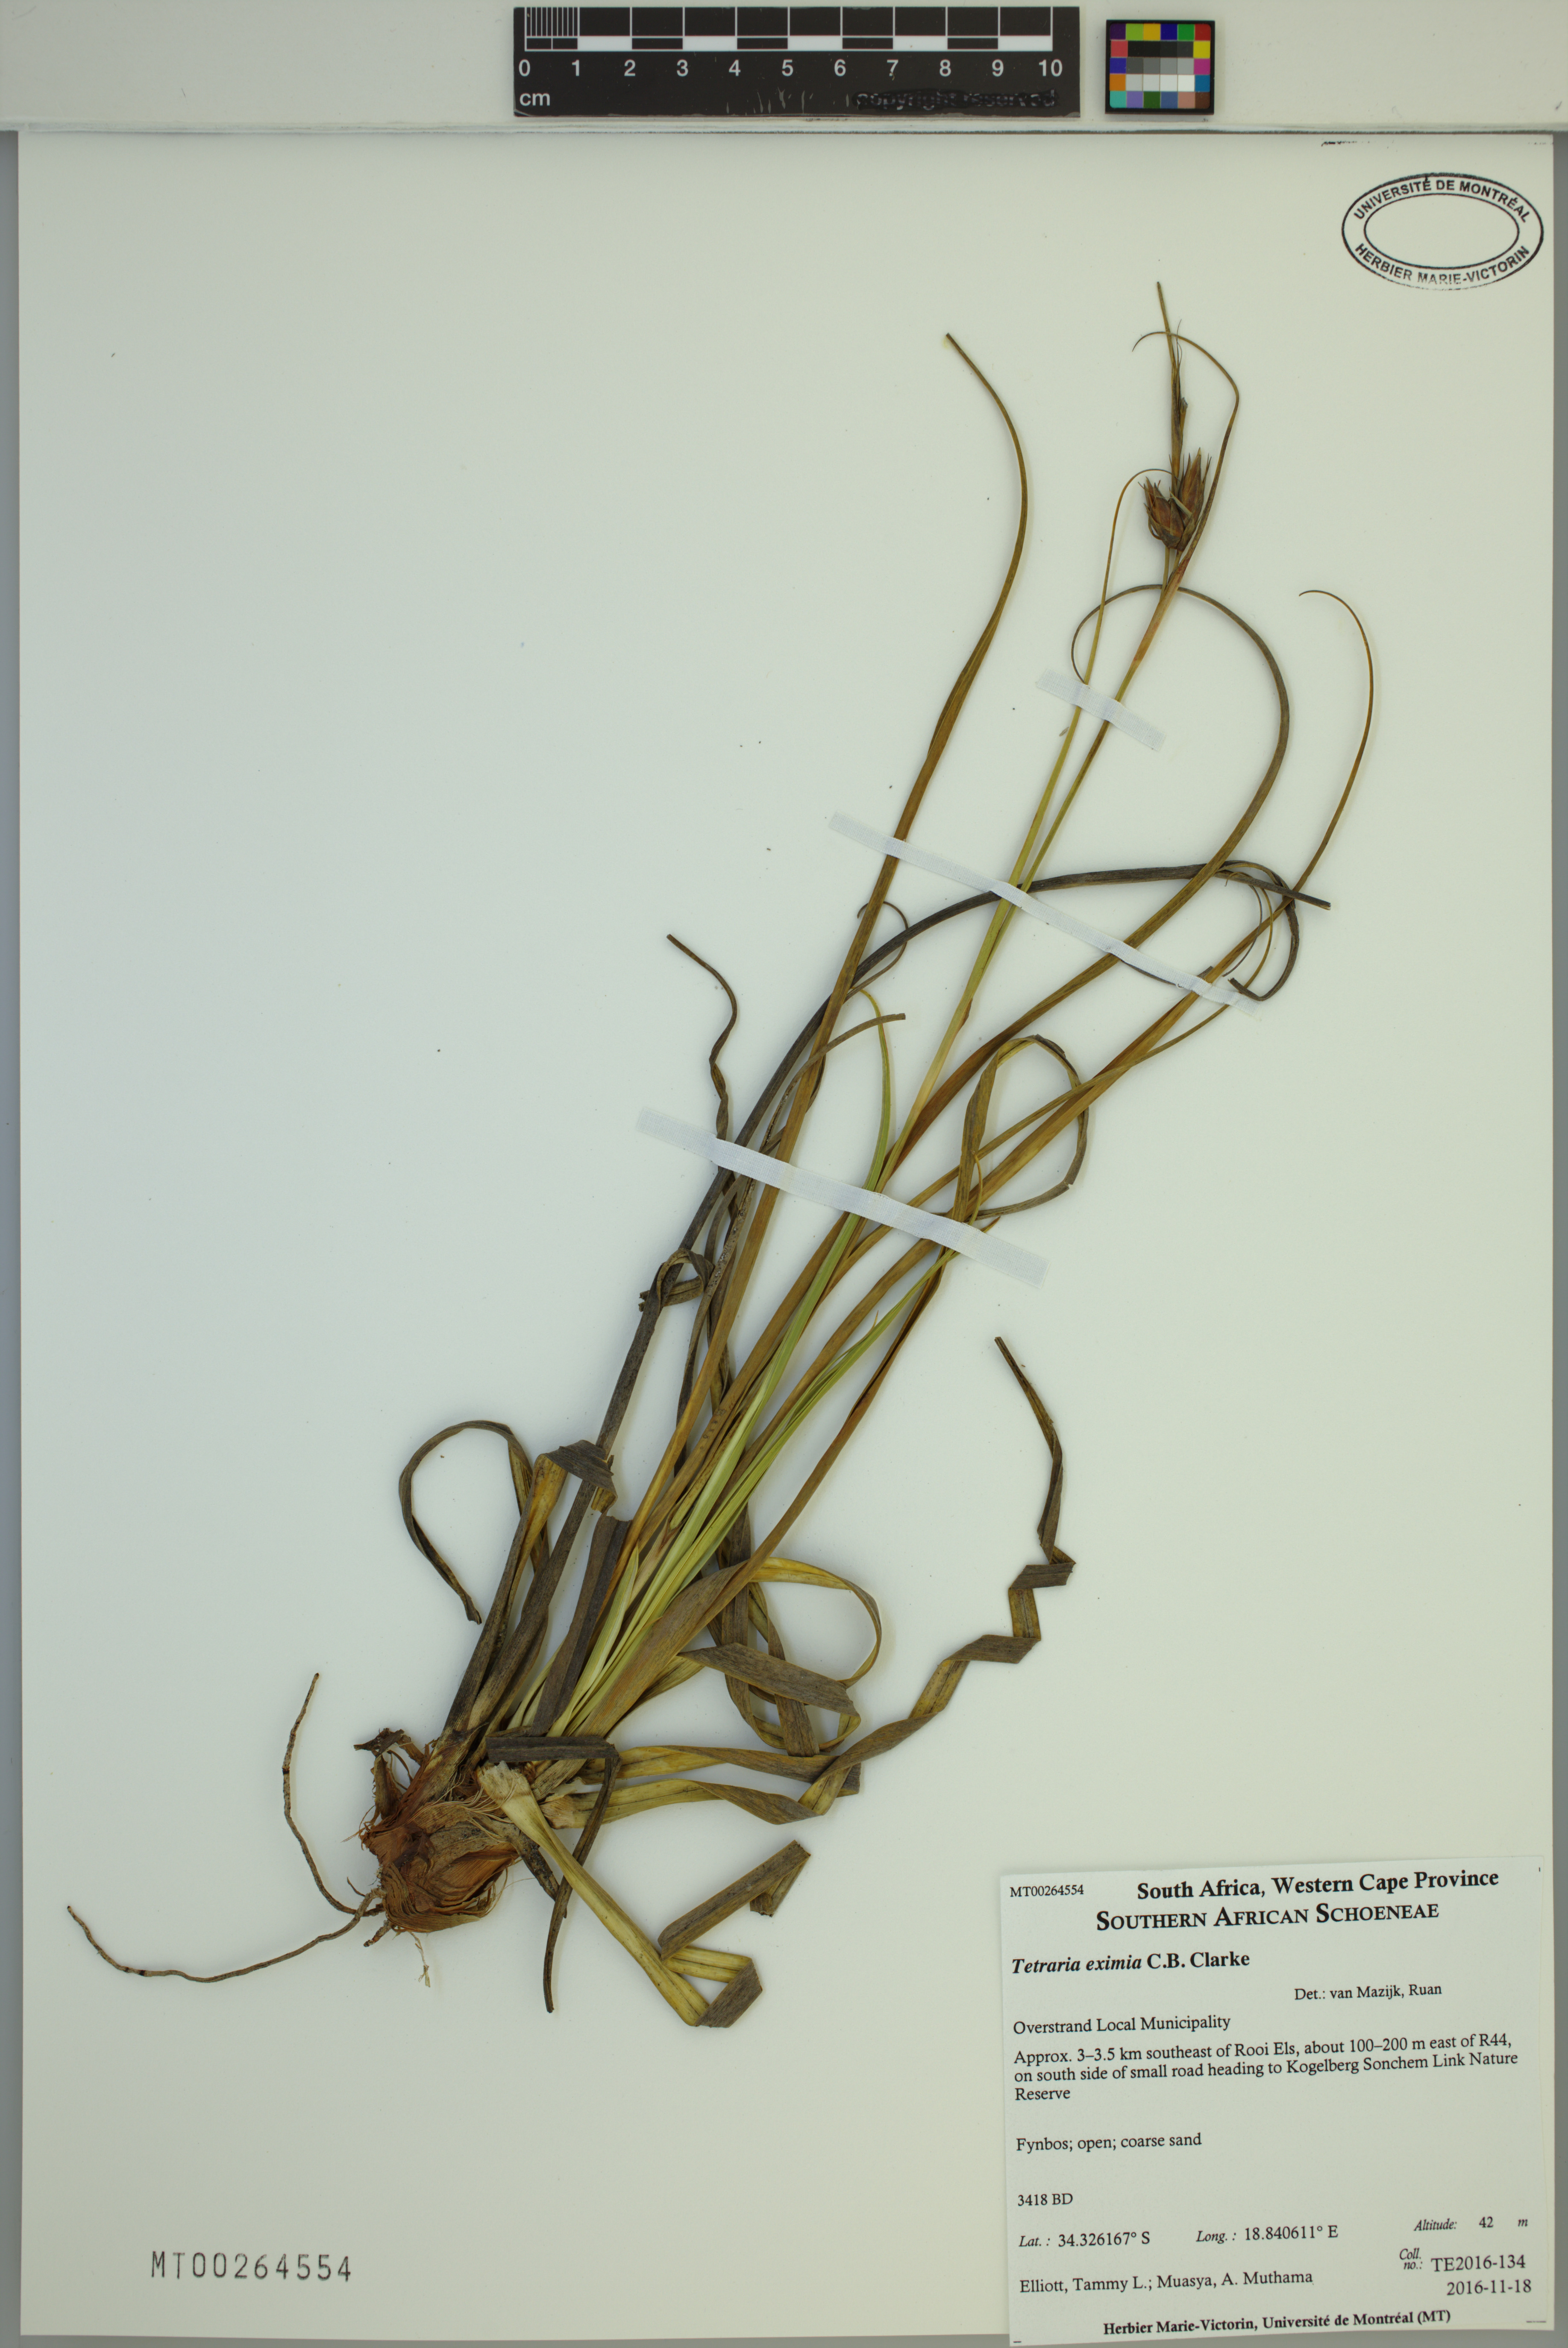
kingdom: Plantae
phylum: Tracheophyta
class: Liliopsida
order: Poales
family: Cyperaceae
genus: Tetraria
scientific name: Tetraria eximia
